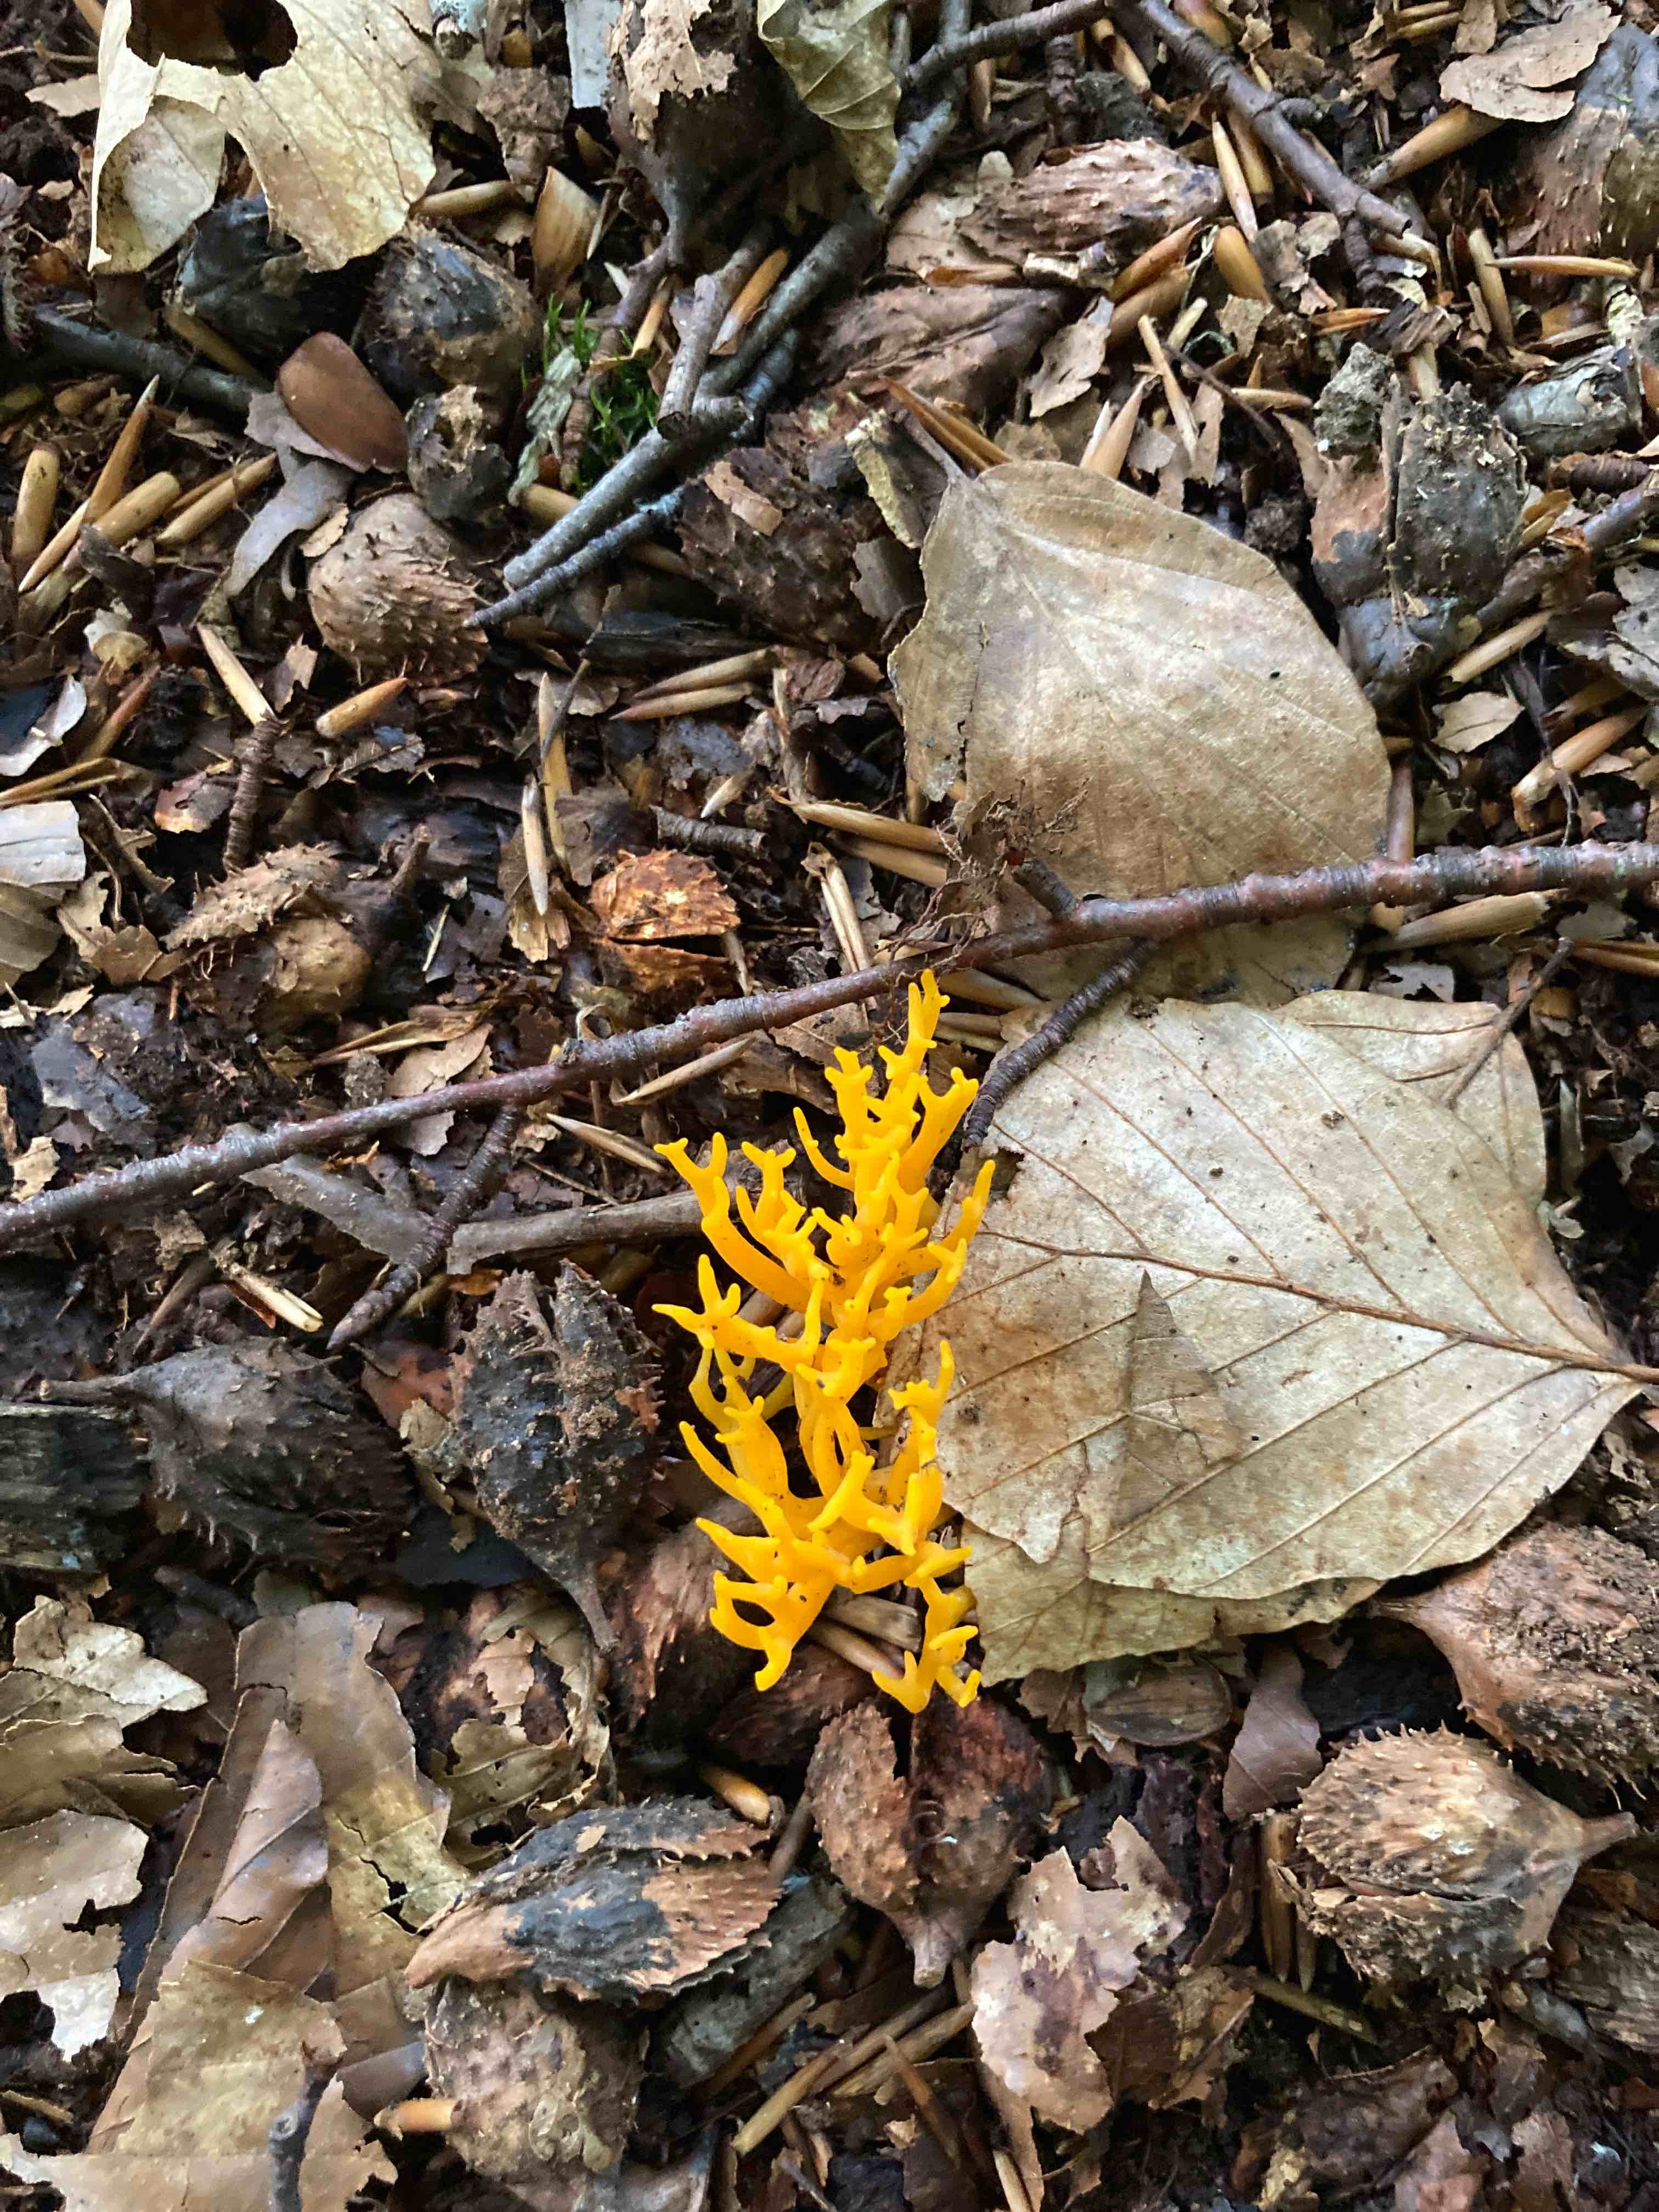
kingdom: Fungi
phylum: Basidiomycota
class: Dacrymycetes
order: Dacrymycetales
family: Dacrymycetaceae
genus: Calocera
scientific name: Calocera viscosa
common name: almindelig guldgaffel
